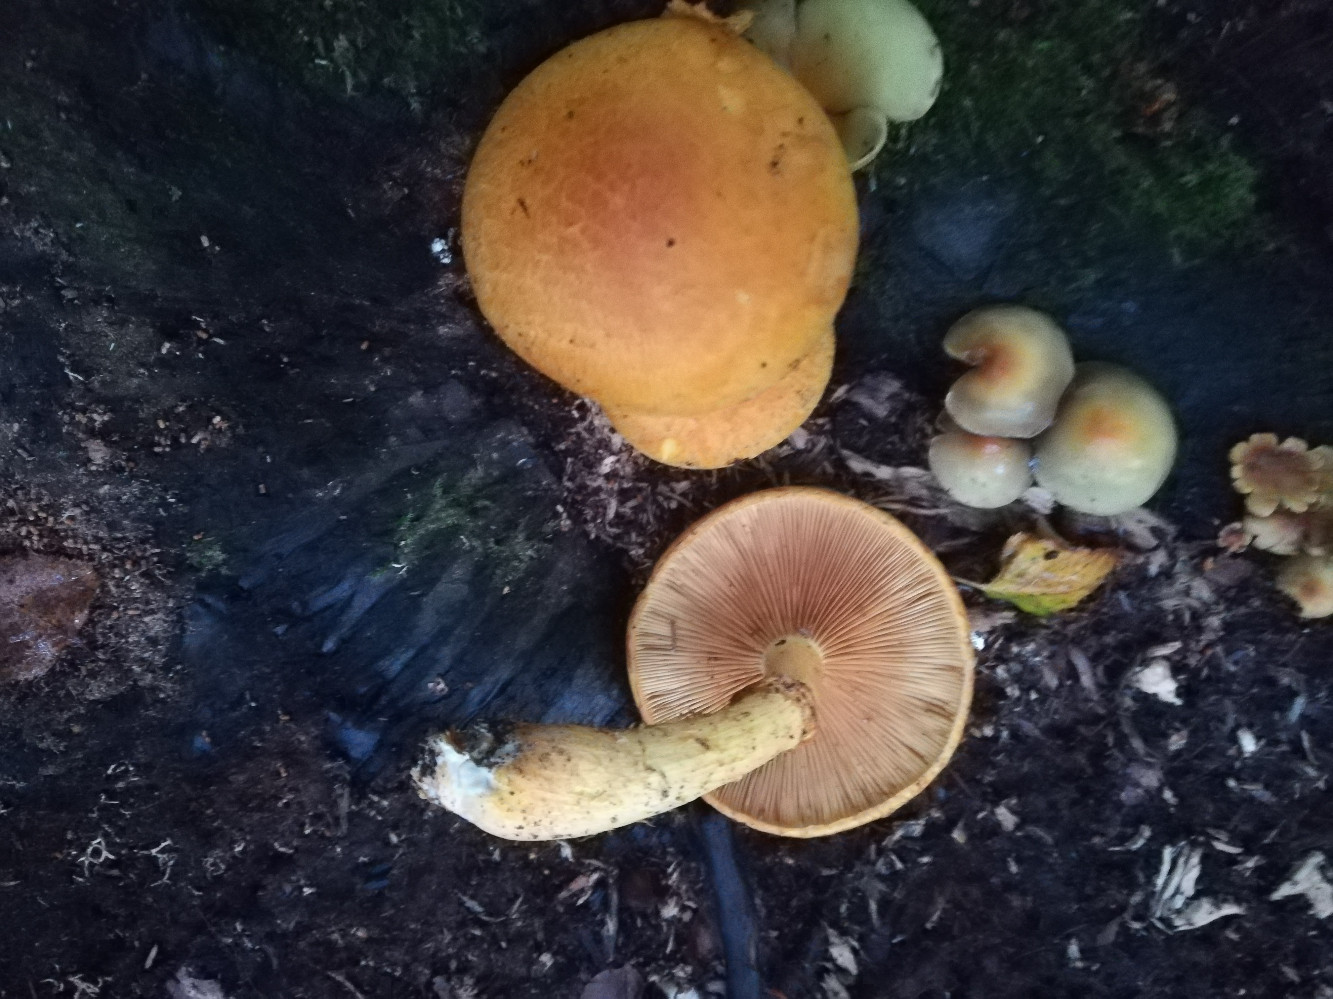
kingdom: Fungi
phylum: Basidiomycota
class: Agaricomycetes
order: Agaricales
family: Hymenogastraceae
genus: Gymnopilus
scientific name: Gymnopilus spectabilis
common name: fibret flammehat
